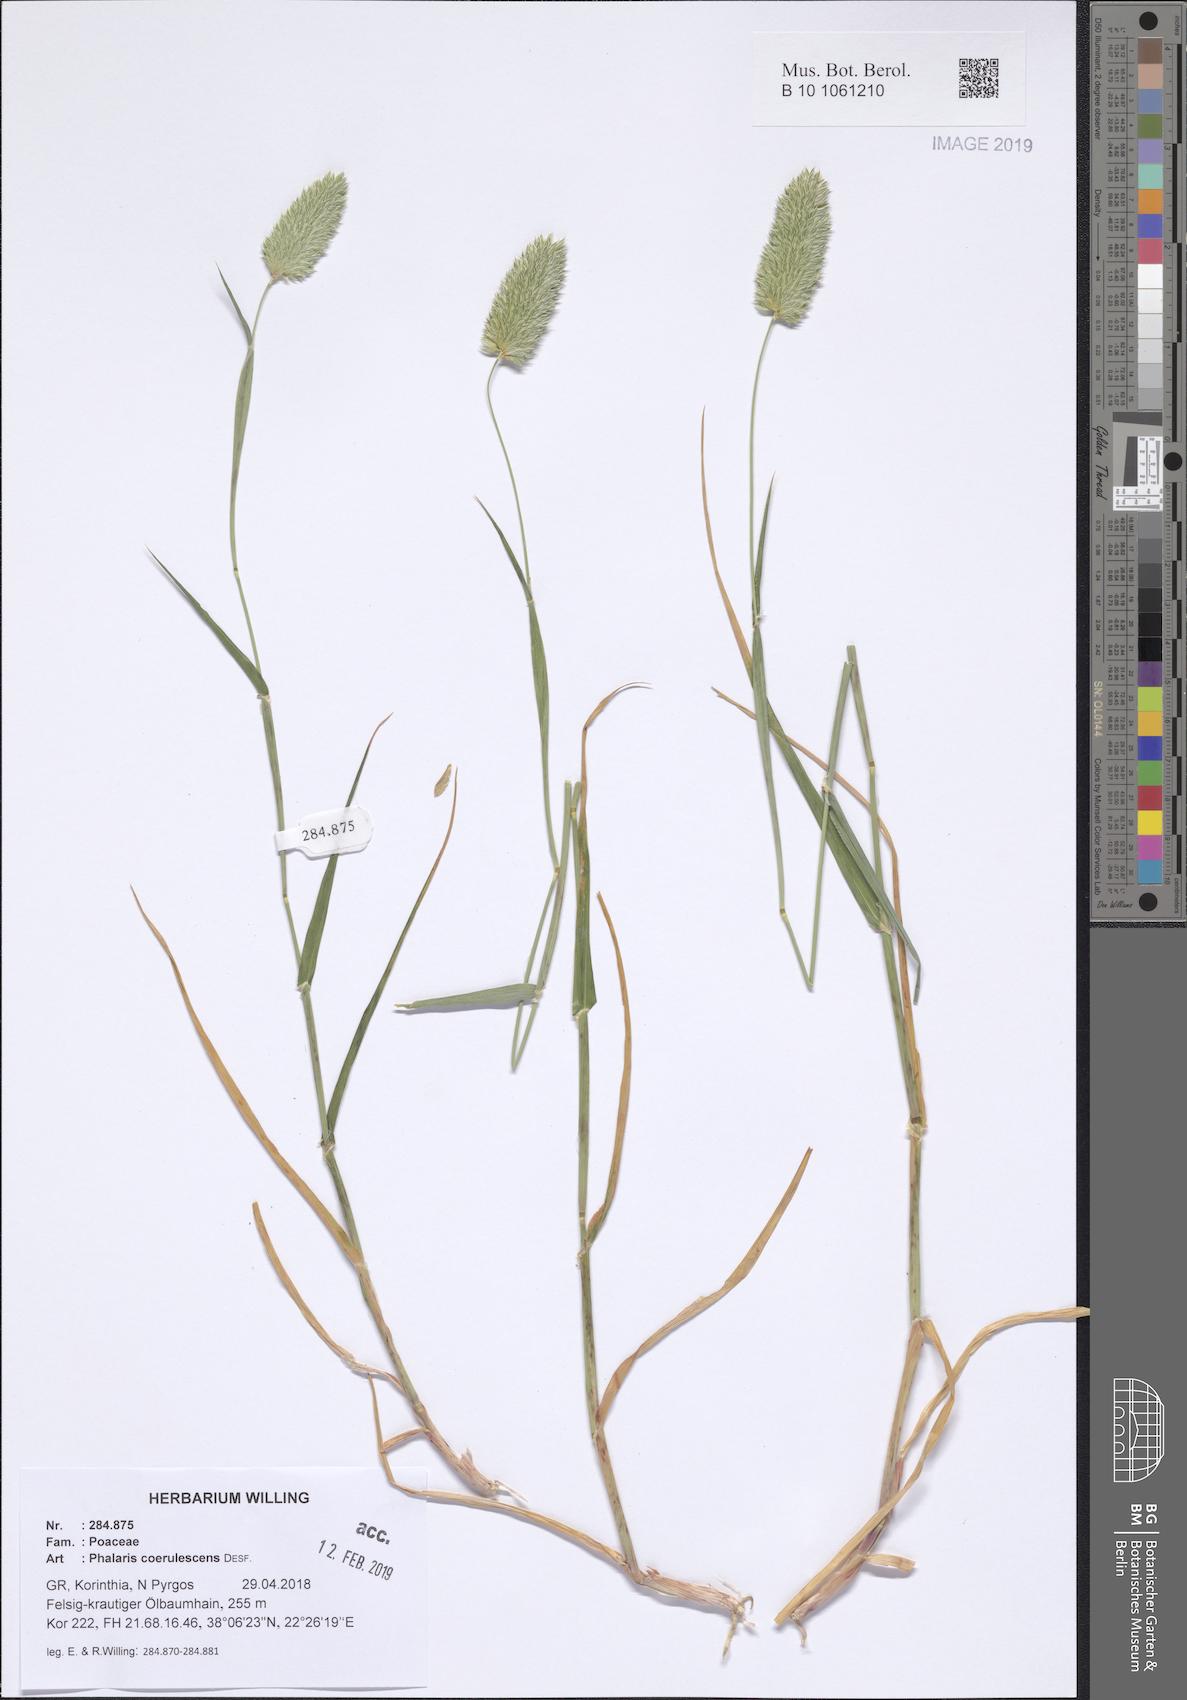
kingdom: Plantae
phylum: Tracheophyta
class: Liliopsida
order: Poales
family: Poaceae
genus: Phalaris
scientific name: Phalaris coerulescens
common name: Sunolgrass
